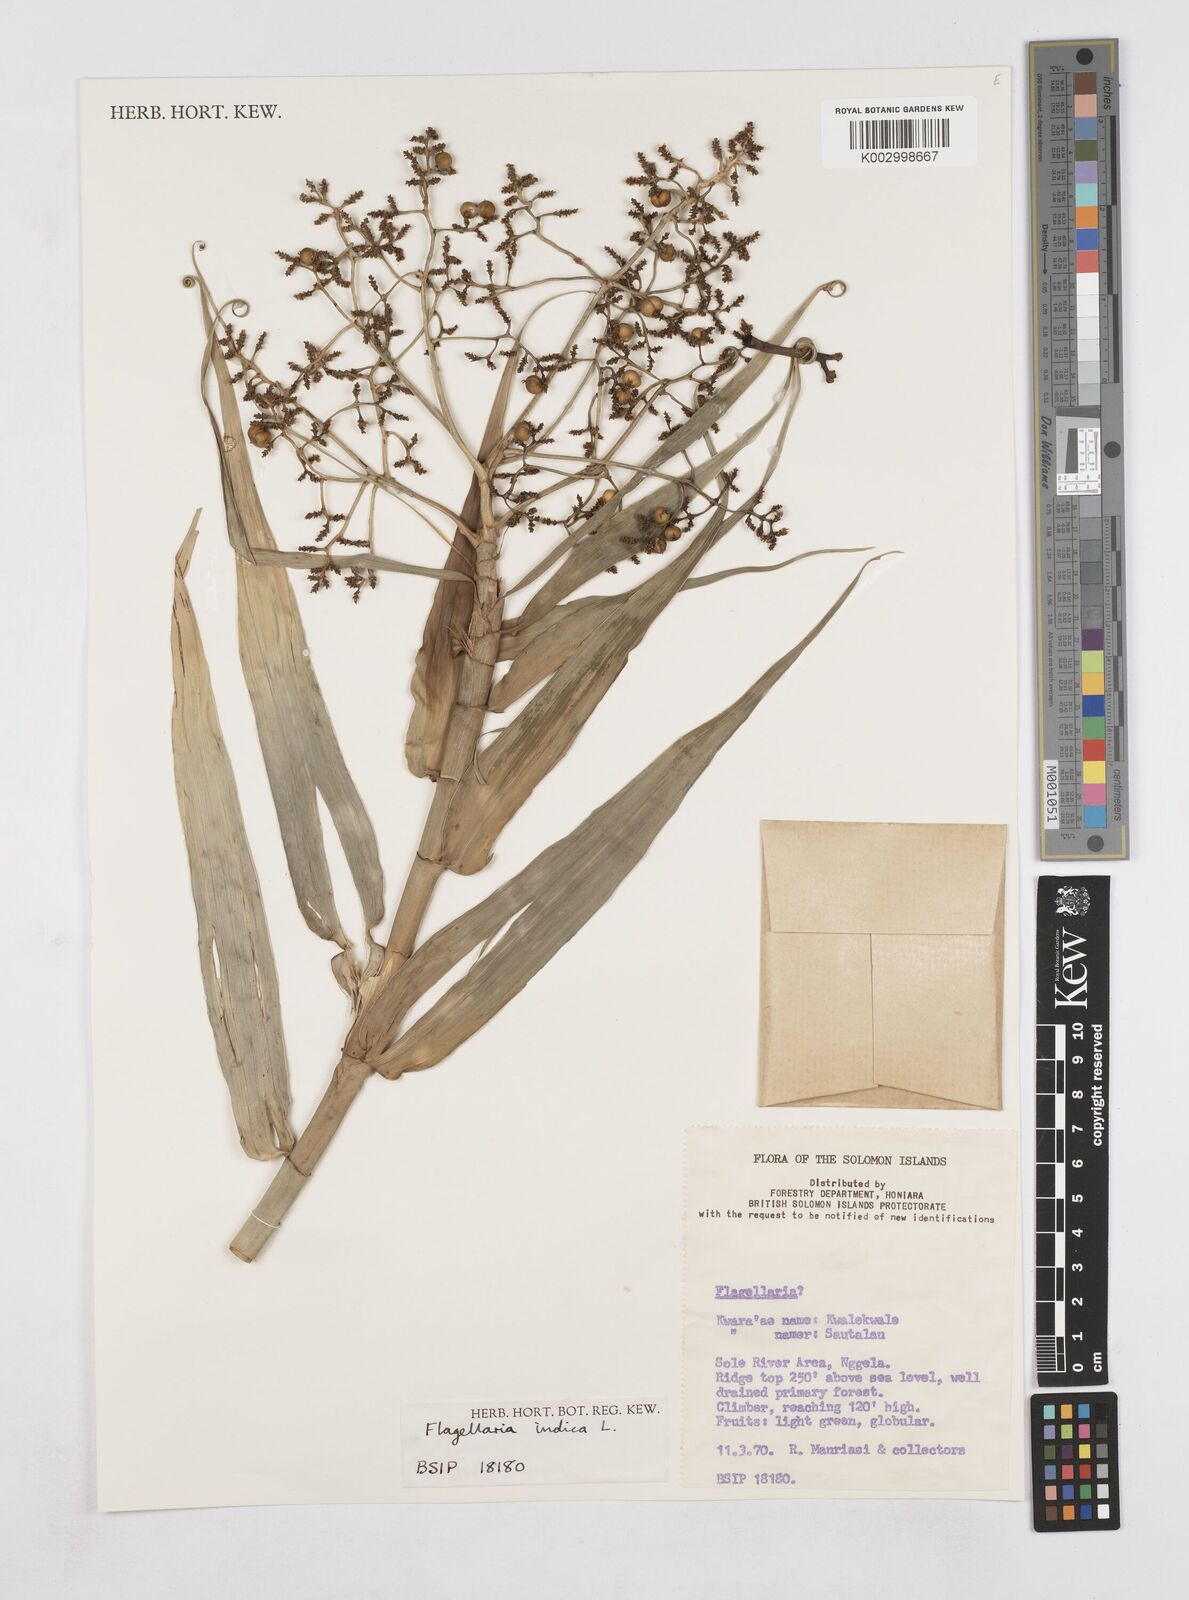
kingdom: Plantae
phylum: Tracheophyta
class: Liliopsida
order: Poales
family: Flagellariaceae
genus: Flagellaria
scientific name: Flagellaria indica
